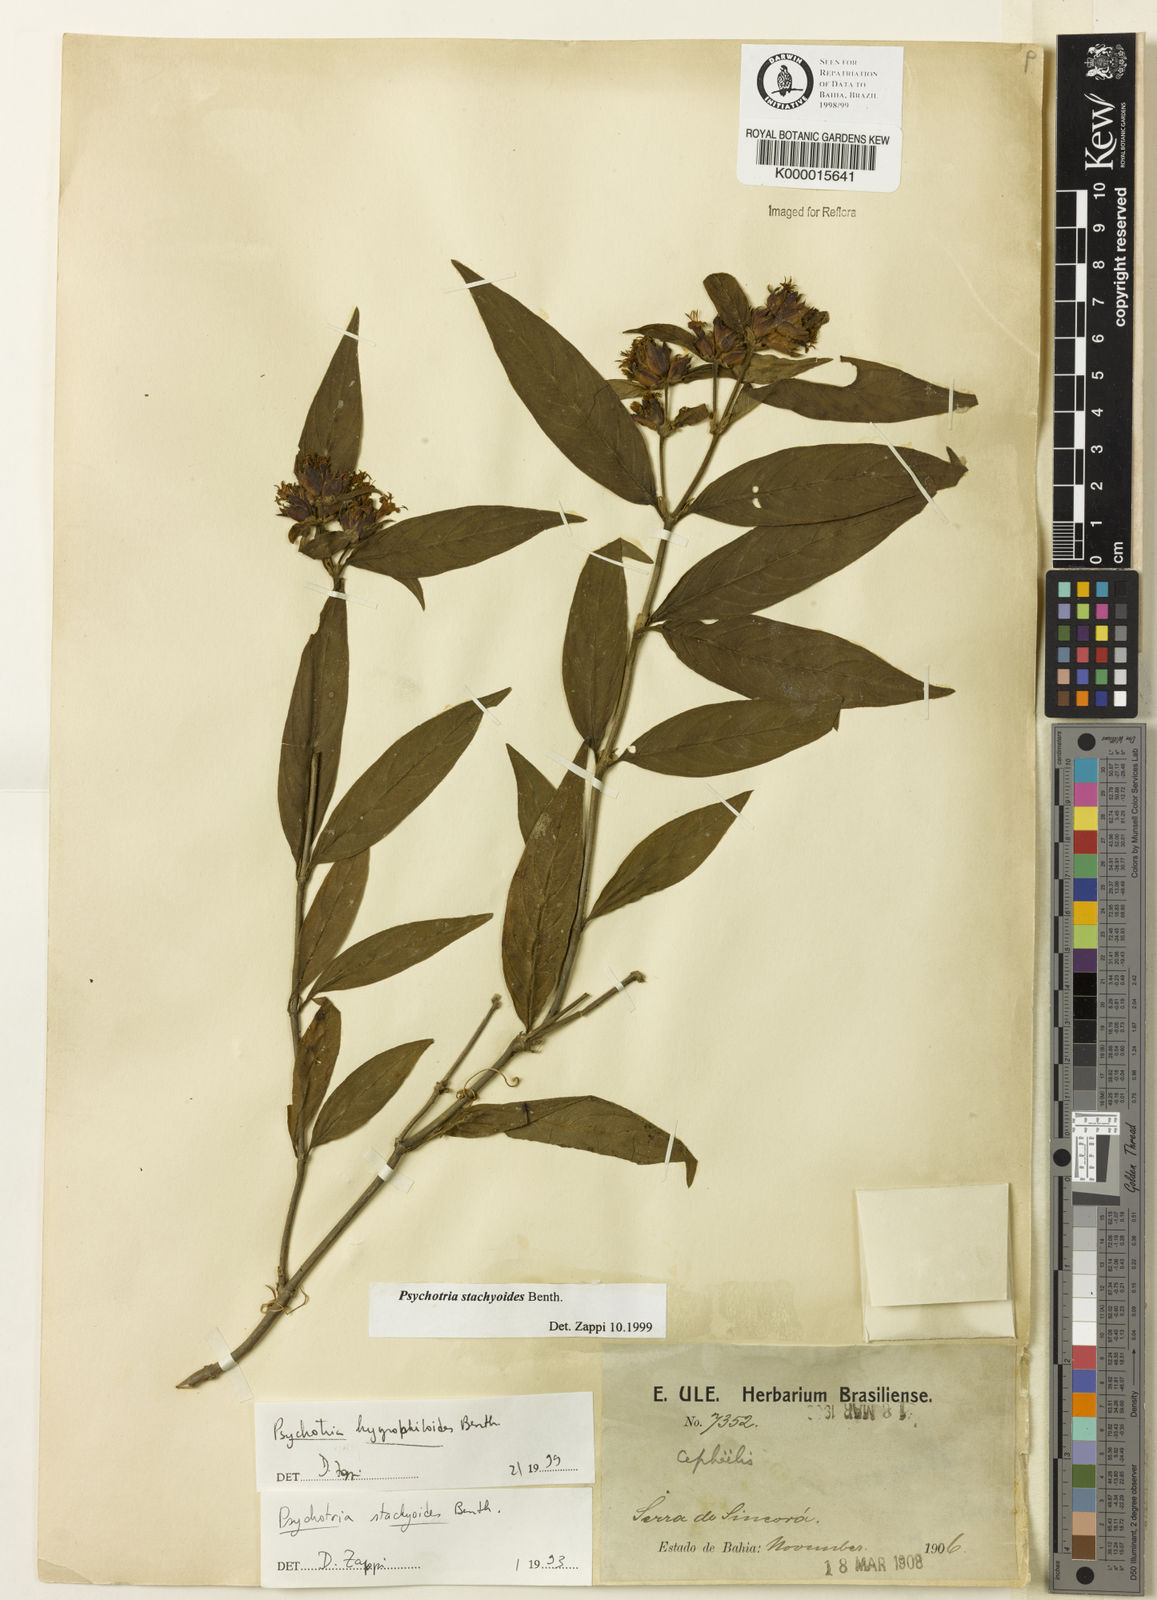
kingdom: Plantae
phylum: Tracheophyta
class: Magnoliopsida
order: Gentianales
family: Rubiaceae
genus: Psychotria
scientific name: Psychotria stachyoides
